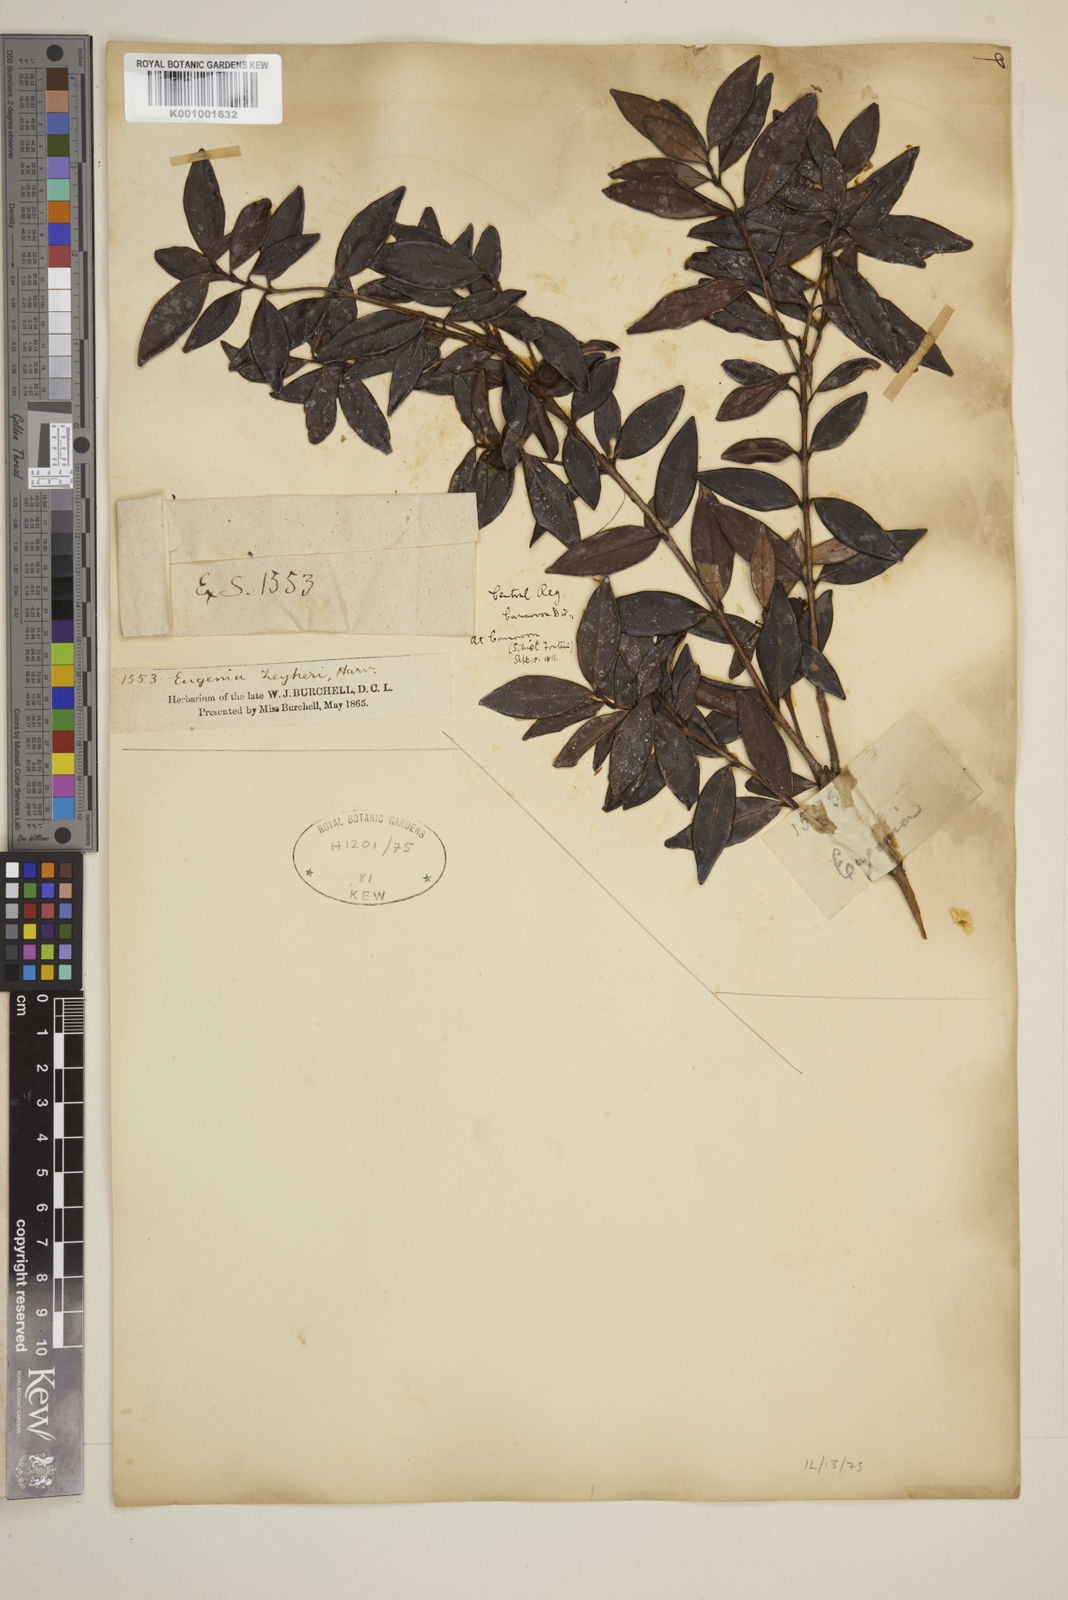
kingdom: Plantae
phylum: Tracheophyta
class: Magnoliopsida
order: Myrtales
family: Myrtaceae
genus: Eugenia
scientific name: Eugenia zeyheri
